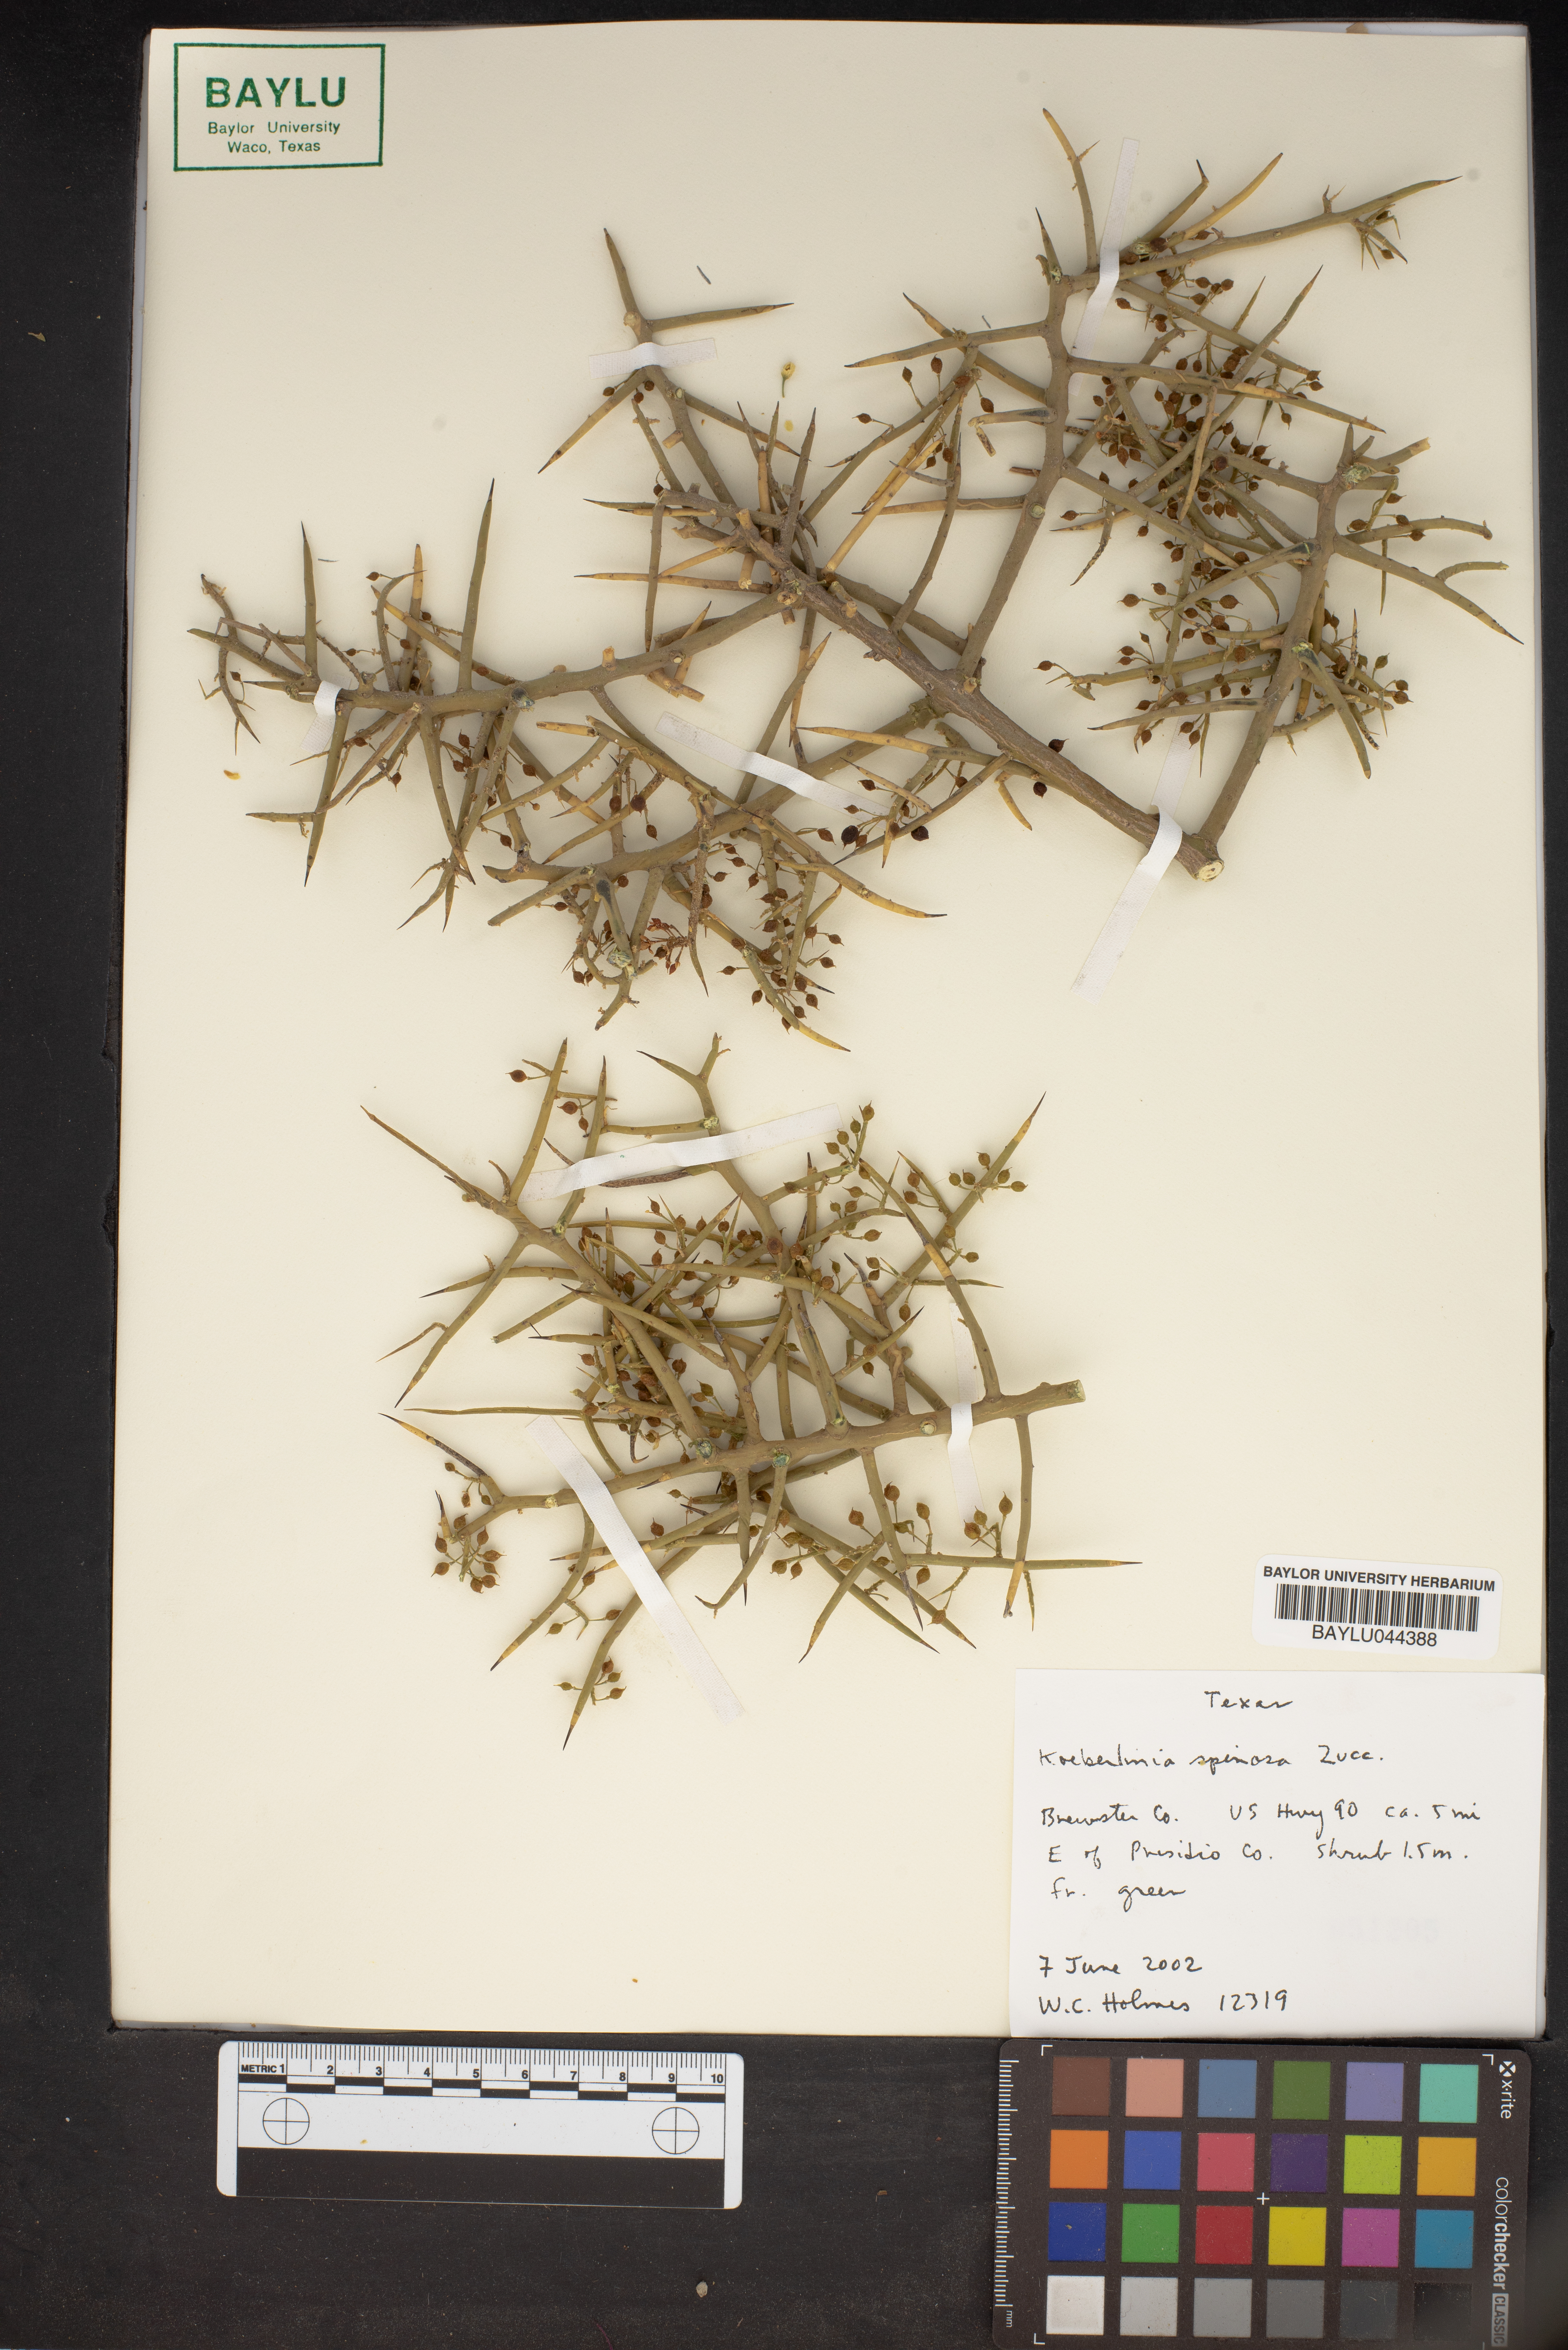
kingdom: Plantae
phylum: Tracheophyta
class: Magnoliopsida
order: Brassicales
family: Koeberliniaceae
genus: Koeberlinia
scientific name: Koeberlinia spinosa
